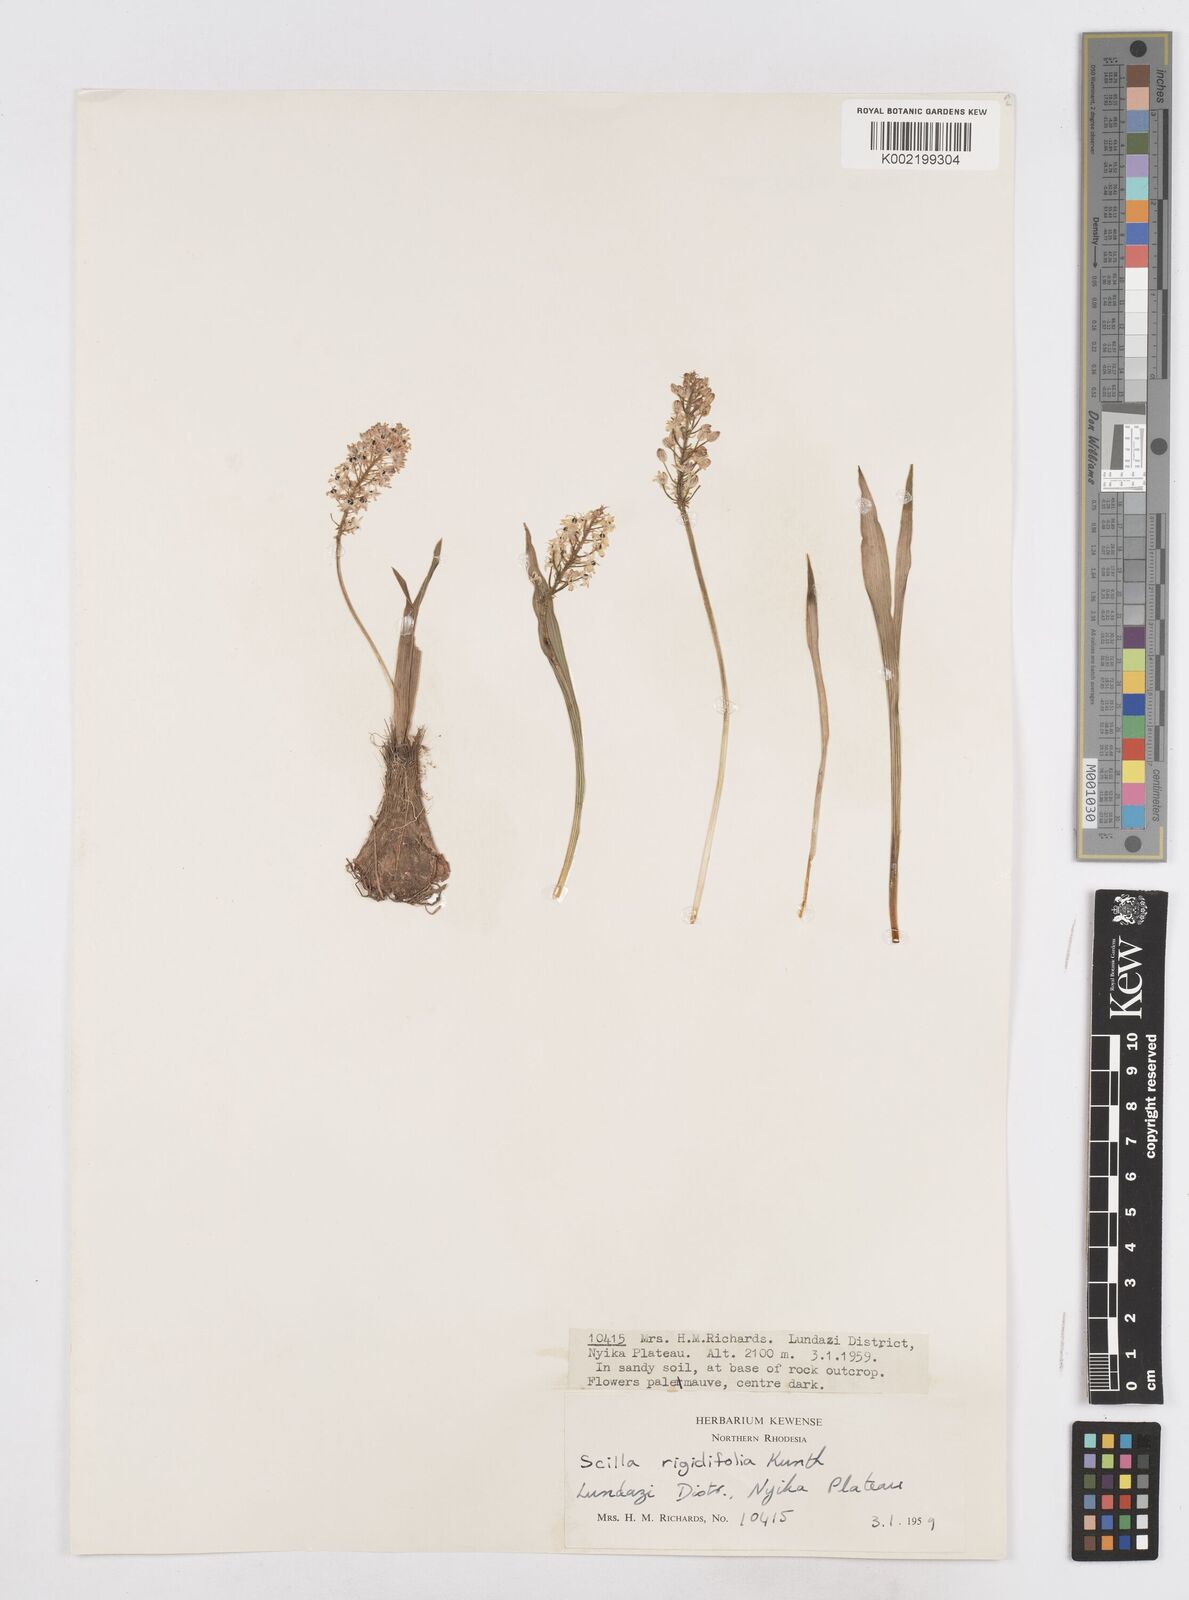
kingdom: Plantae
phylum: Tracheophyta
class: Liliopsida
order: Asparagales
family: Asparagaceae
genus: Schizocarphus
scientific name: Schizocarphus nervosus
